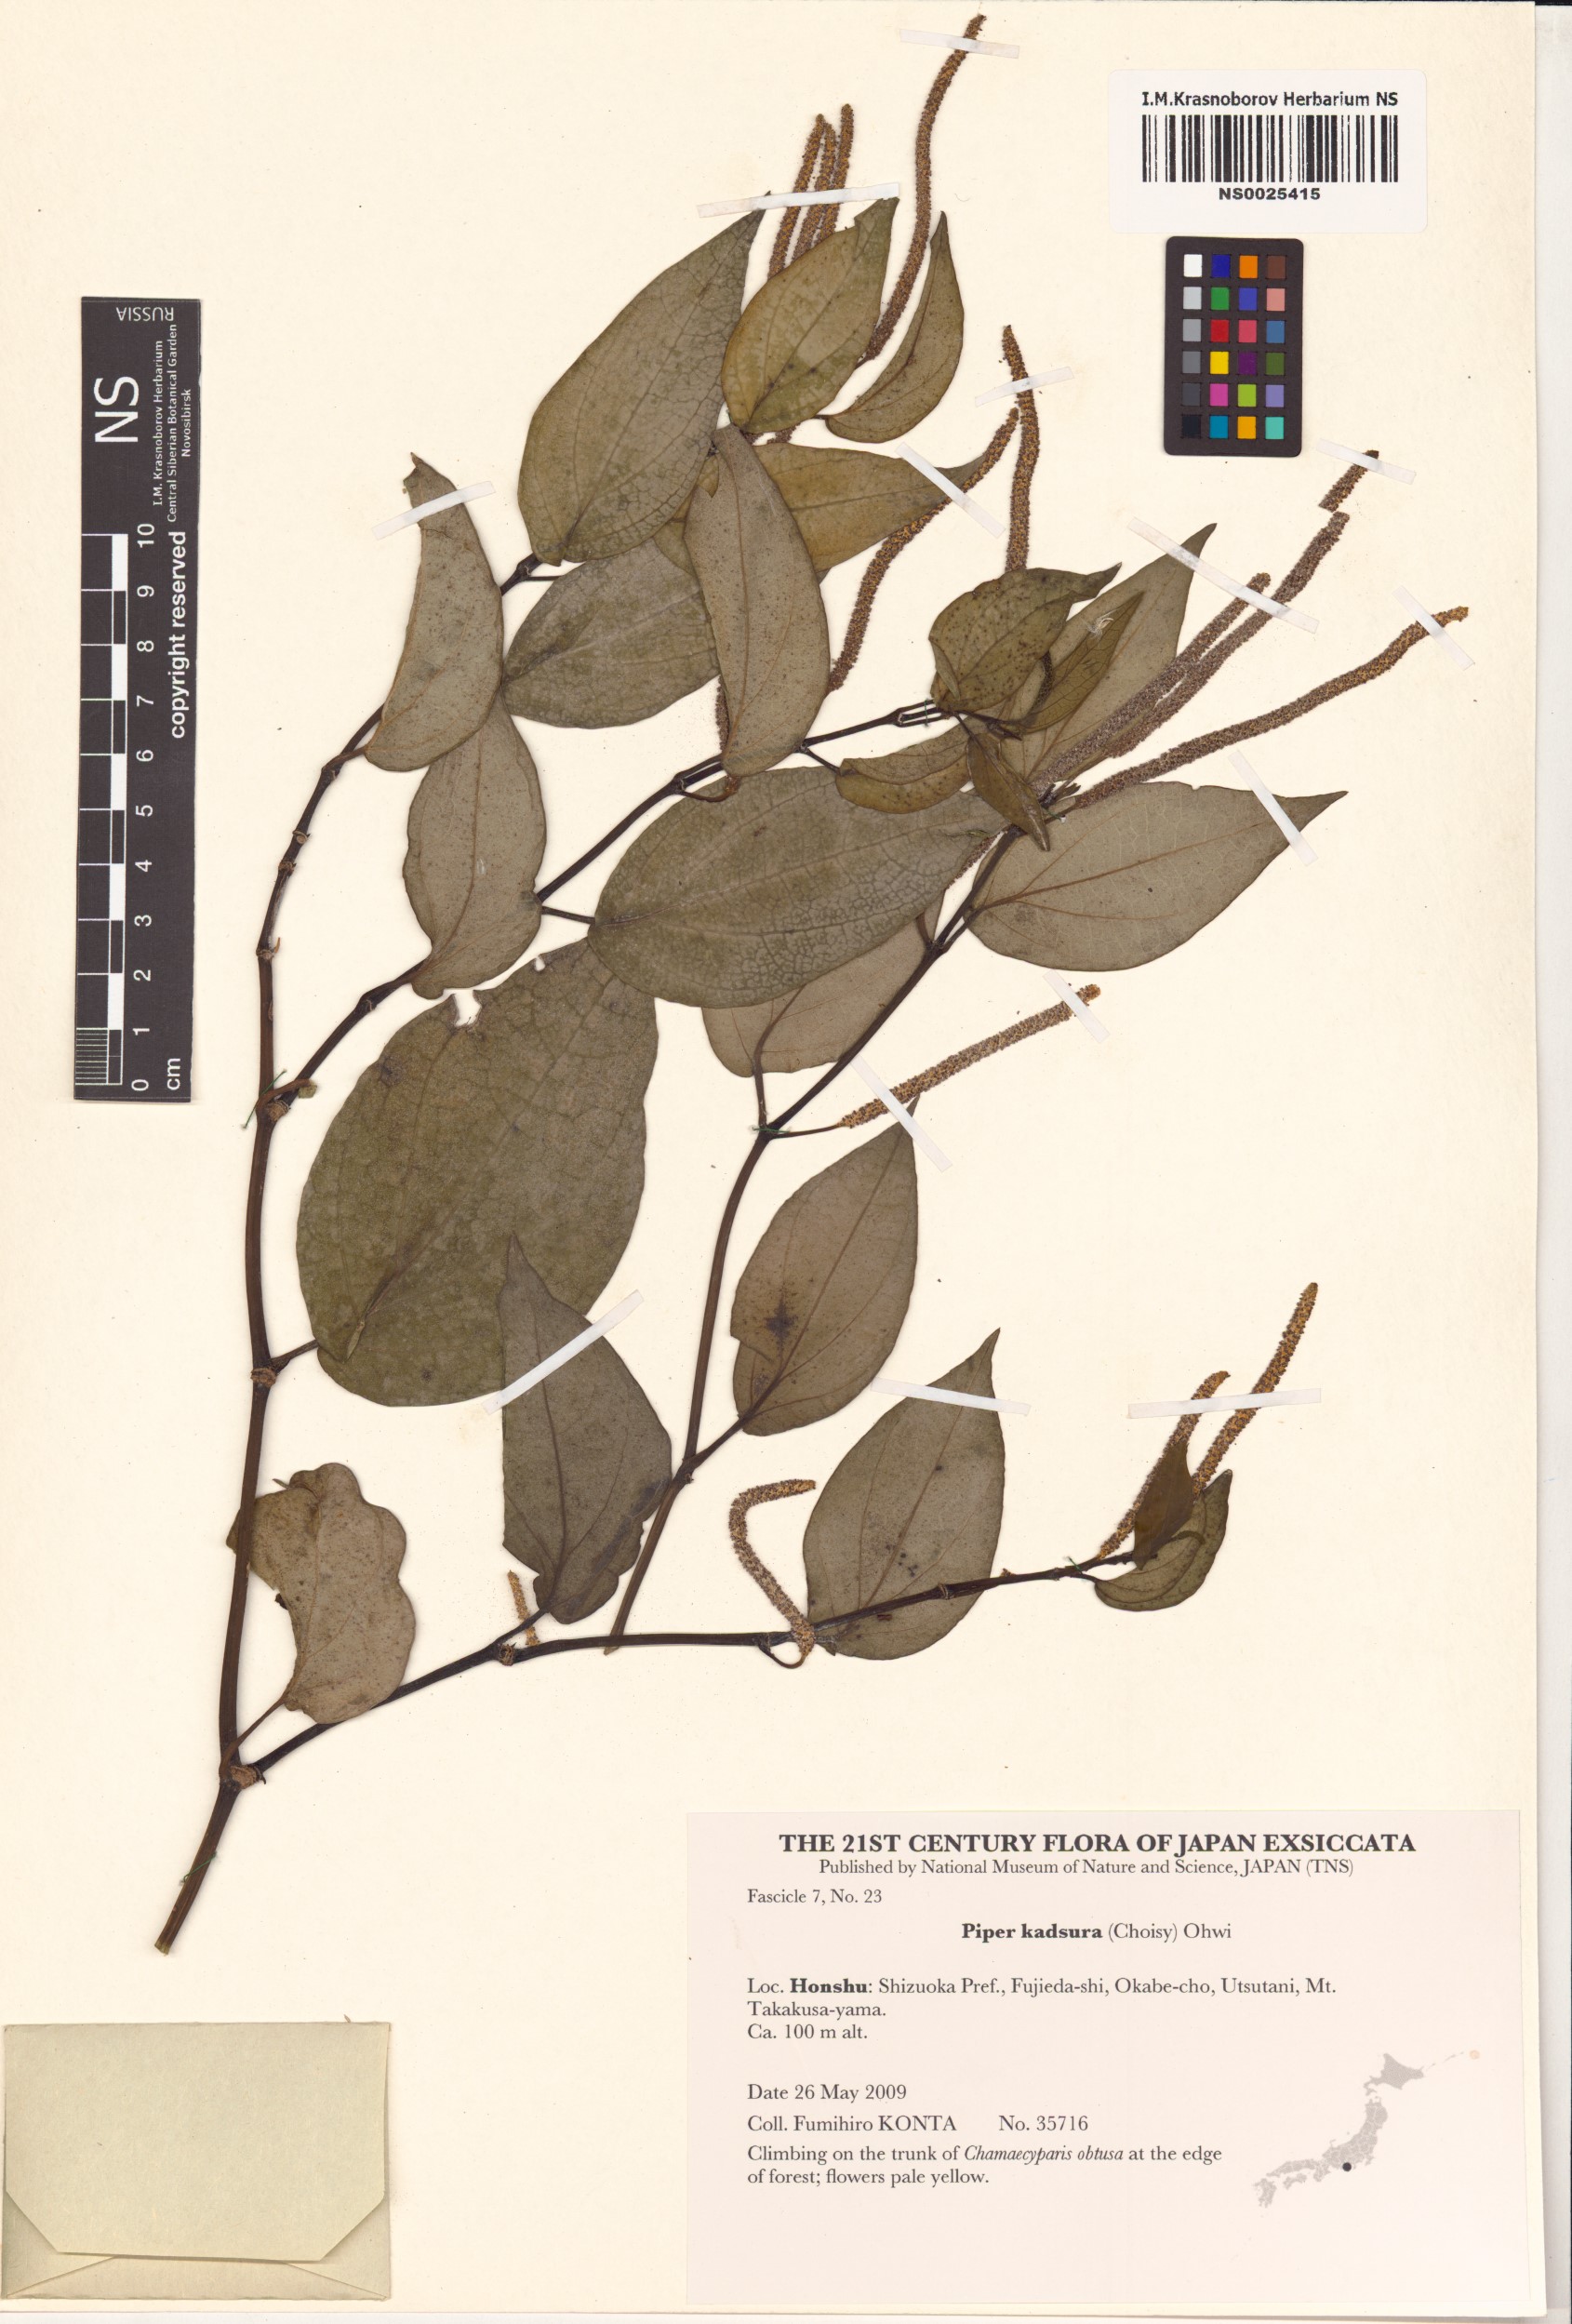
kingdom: Plantae
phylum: Tracheophyta
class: Magnoliopsida
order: Piperales
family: Piperaceae
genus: Piper
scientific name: Piper kadsura
